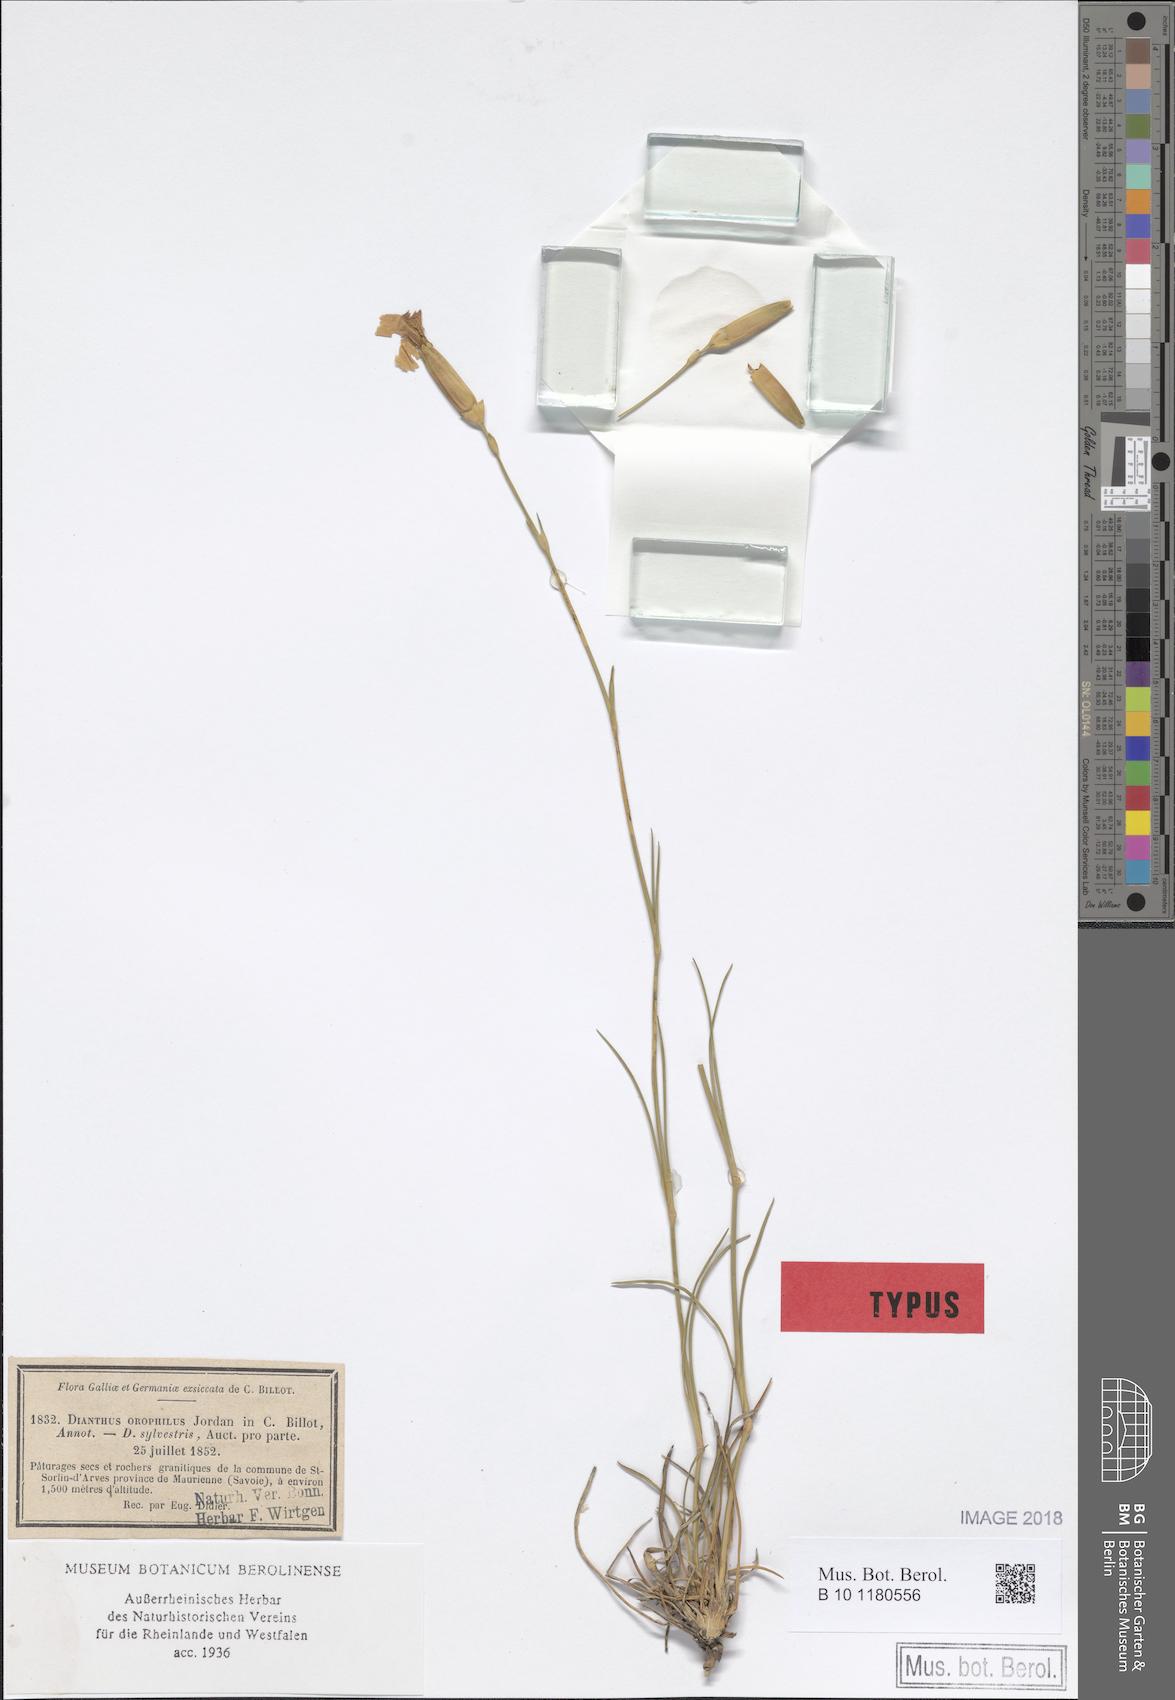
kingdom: Plantae
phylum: Tracheophyta
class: Magnoliopsida
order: Caryophyllales
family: Caryophyllaceae
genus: Dianthus
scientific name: Dianthus sylvestris
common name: Wood pink
